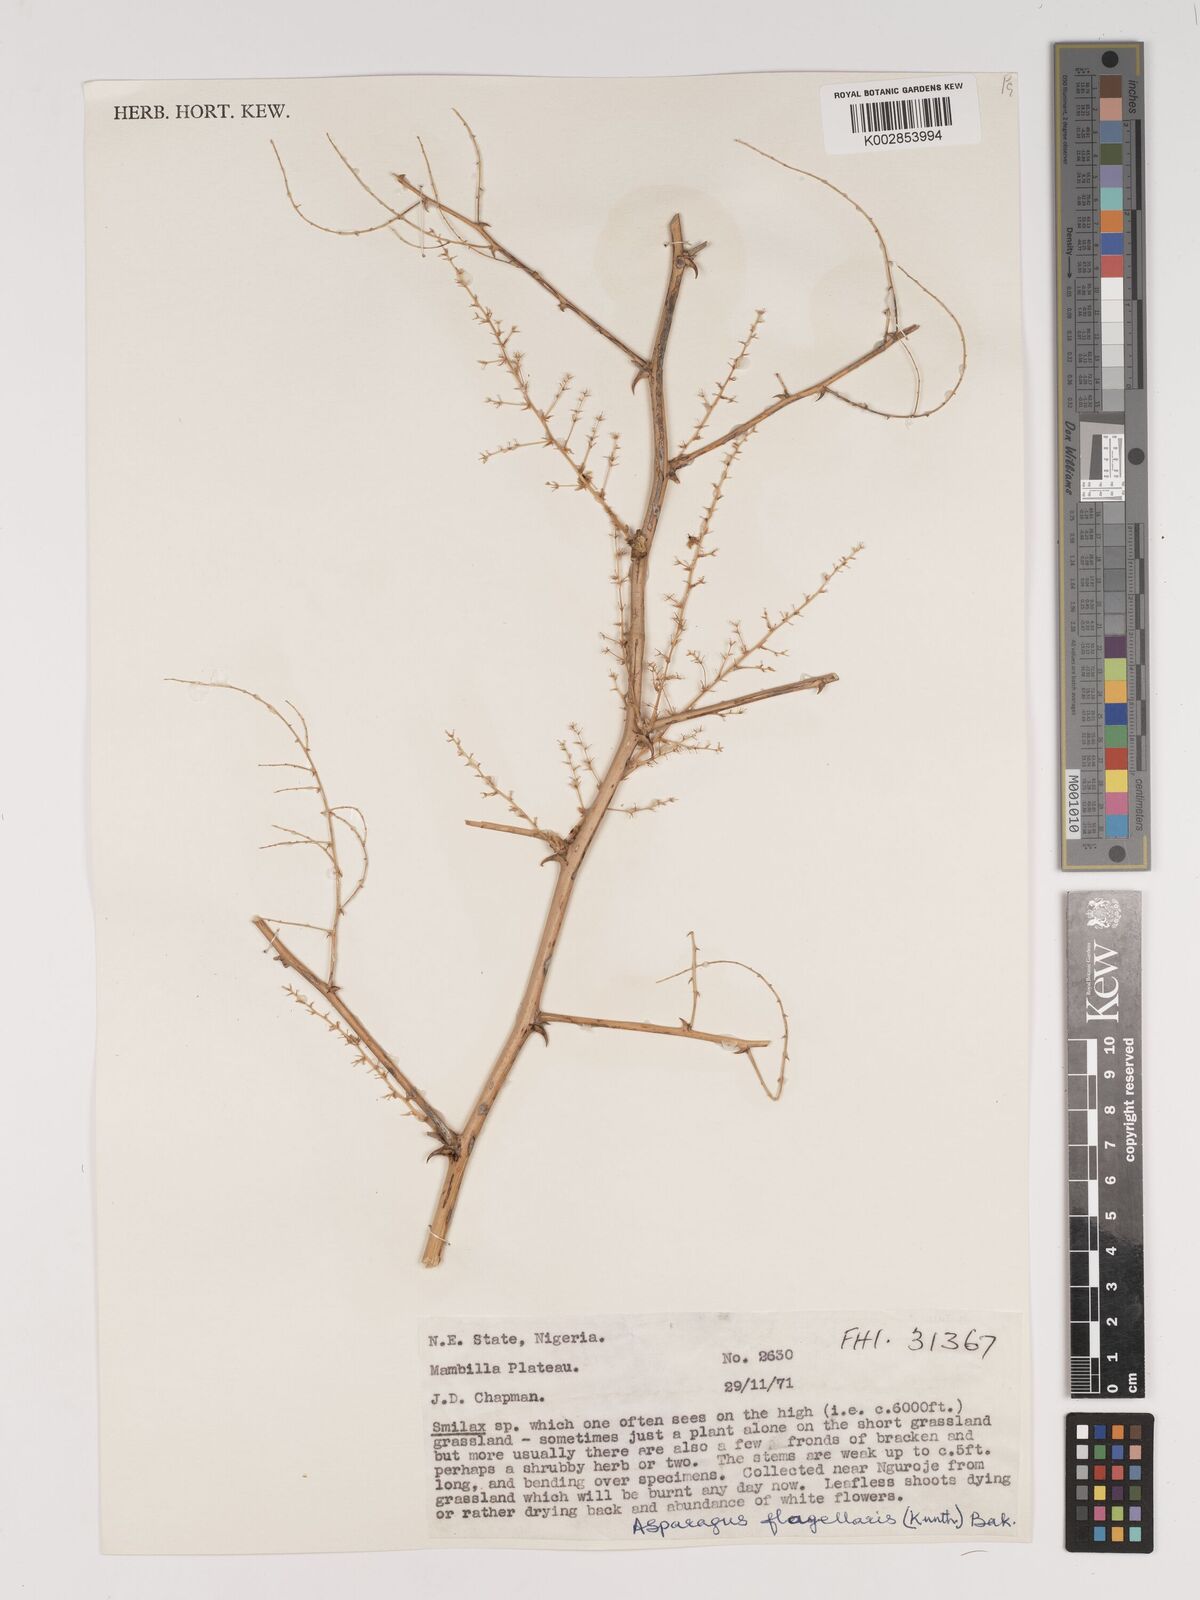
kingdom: Plantae
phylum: Tracheophyta
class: Liliopsida
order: Asparagales
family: Asparagaceae
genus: Asparagus
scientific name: Asparagus flagellaris
